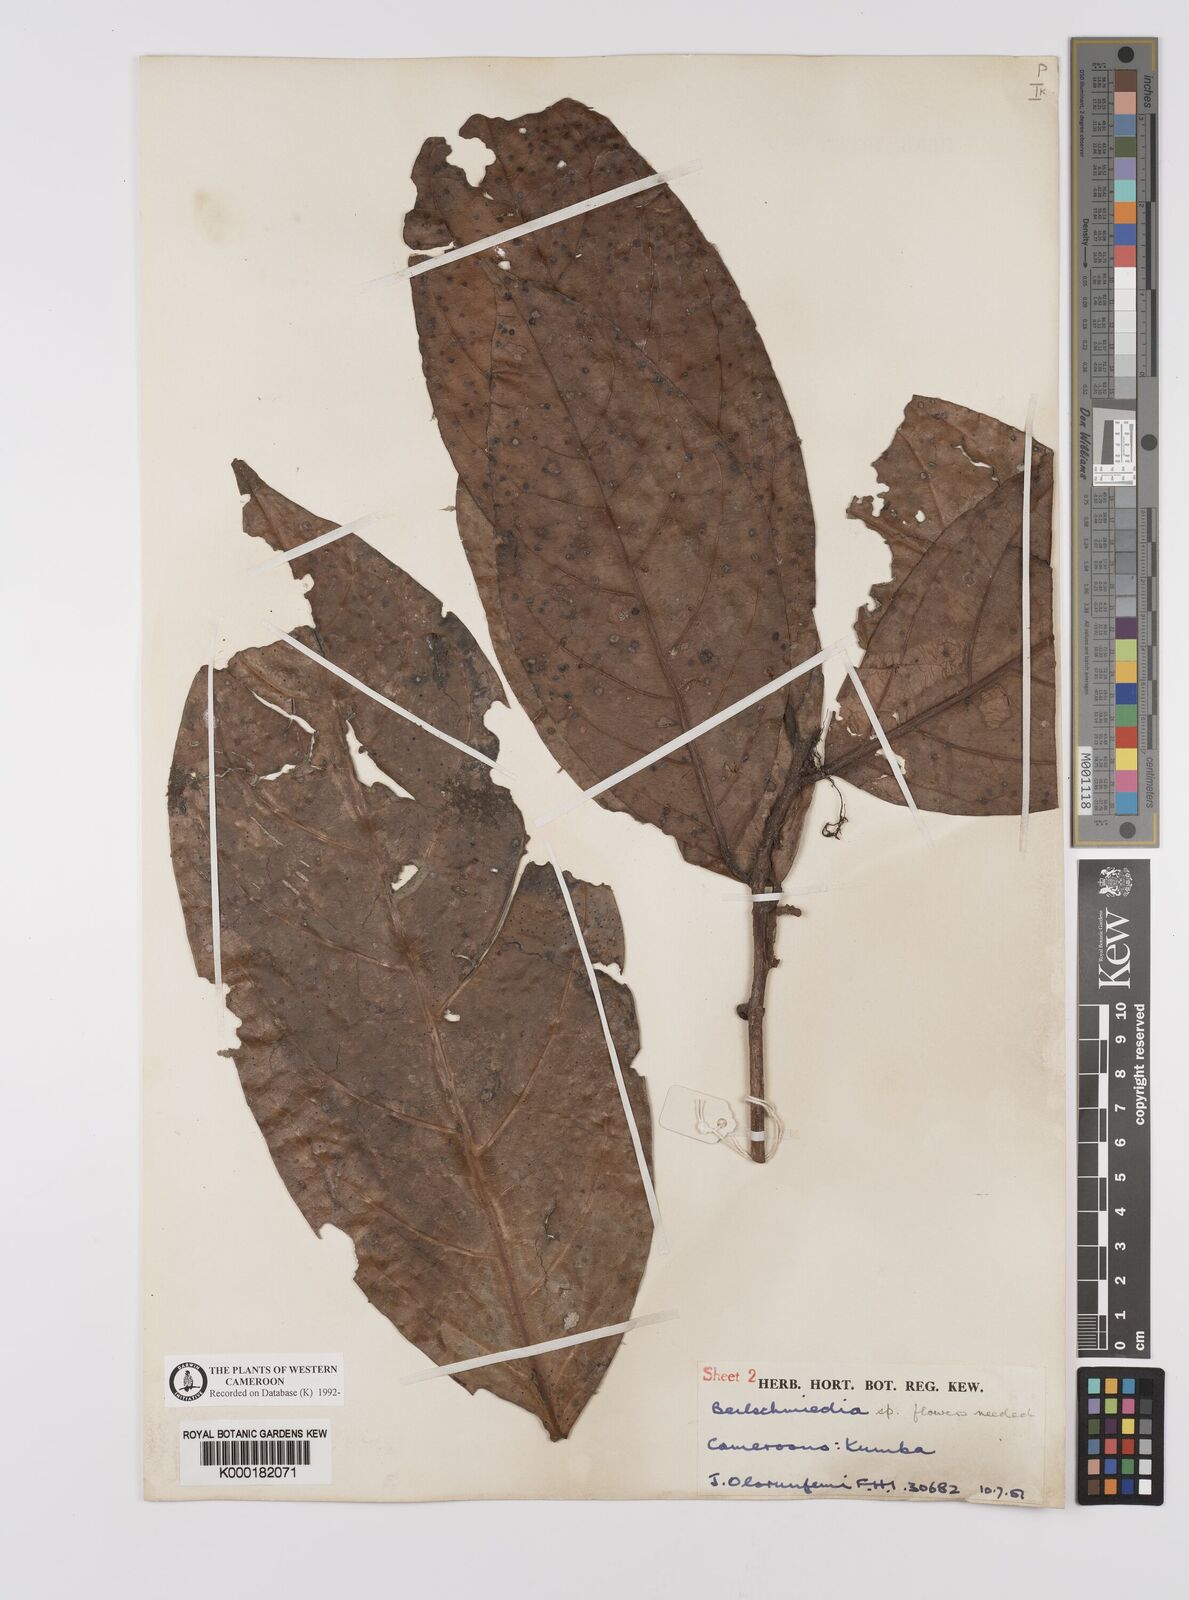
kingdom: Plantae
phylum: Tracheophyta
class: Magnoliopsida
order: Laurales
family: Lauraceae
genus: Beilschmiedia
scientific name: Beilschmiedia
